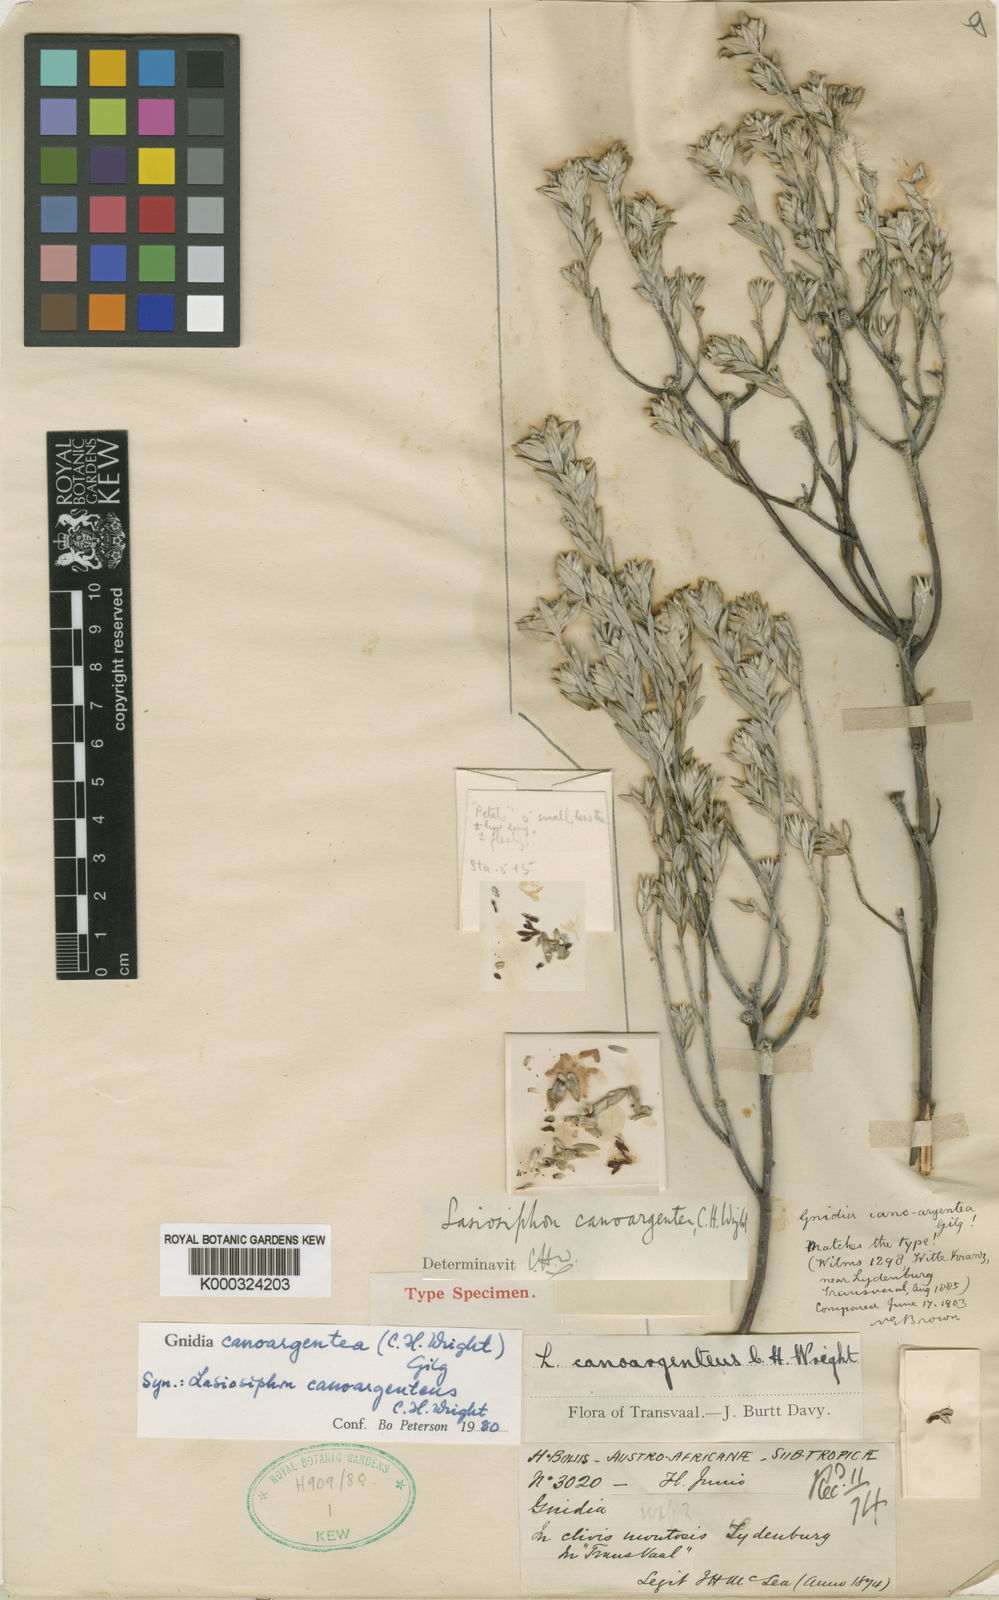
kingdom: Plantae
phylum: Tracheophyta
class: Magnoliopsida
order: Malvales
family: Thymelaeaceae
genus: Gnidia
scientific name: Gnidia canoargentea
